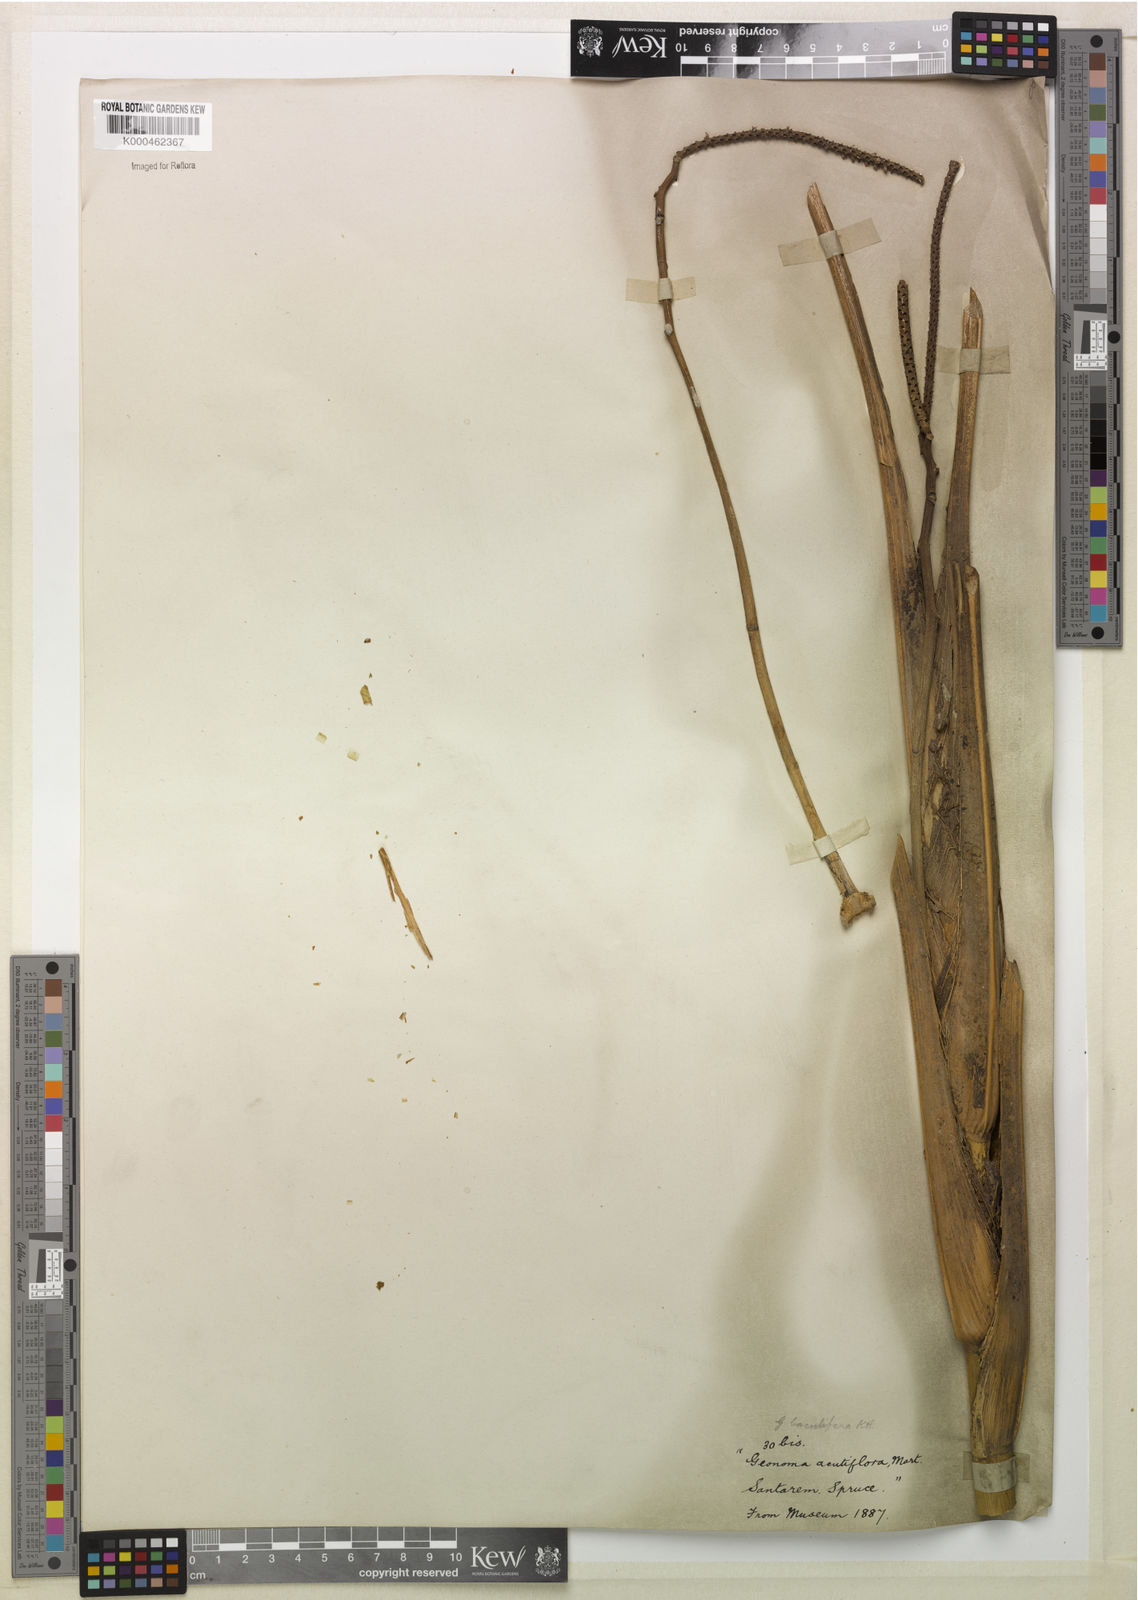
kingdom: Plantae
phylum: Tracheophyta
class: Liliopsida
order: Arecales
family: Arecaceae
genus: Geonoma
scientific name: Geonoma baculifera
